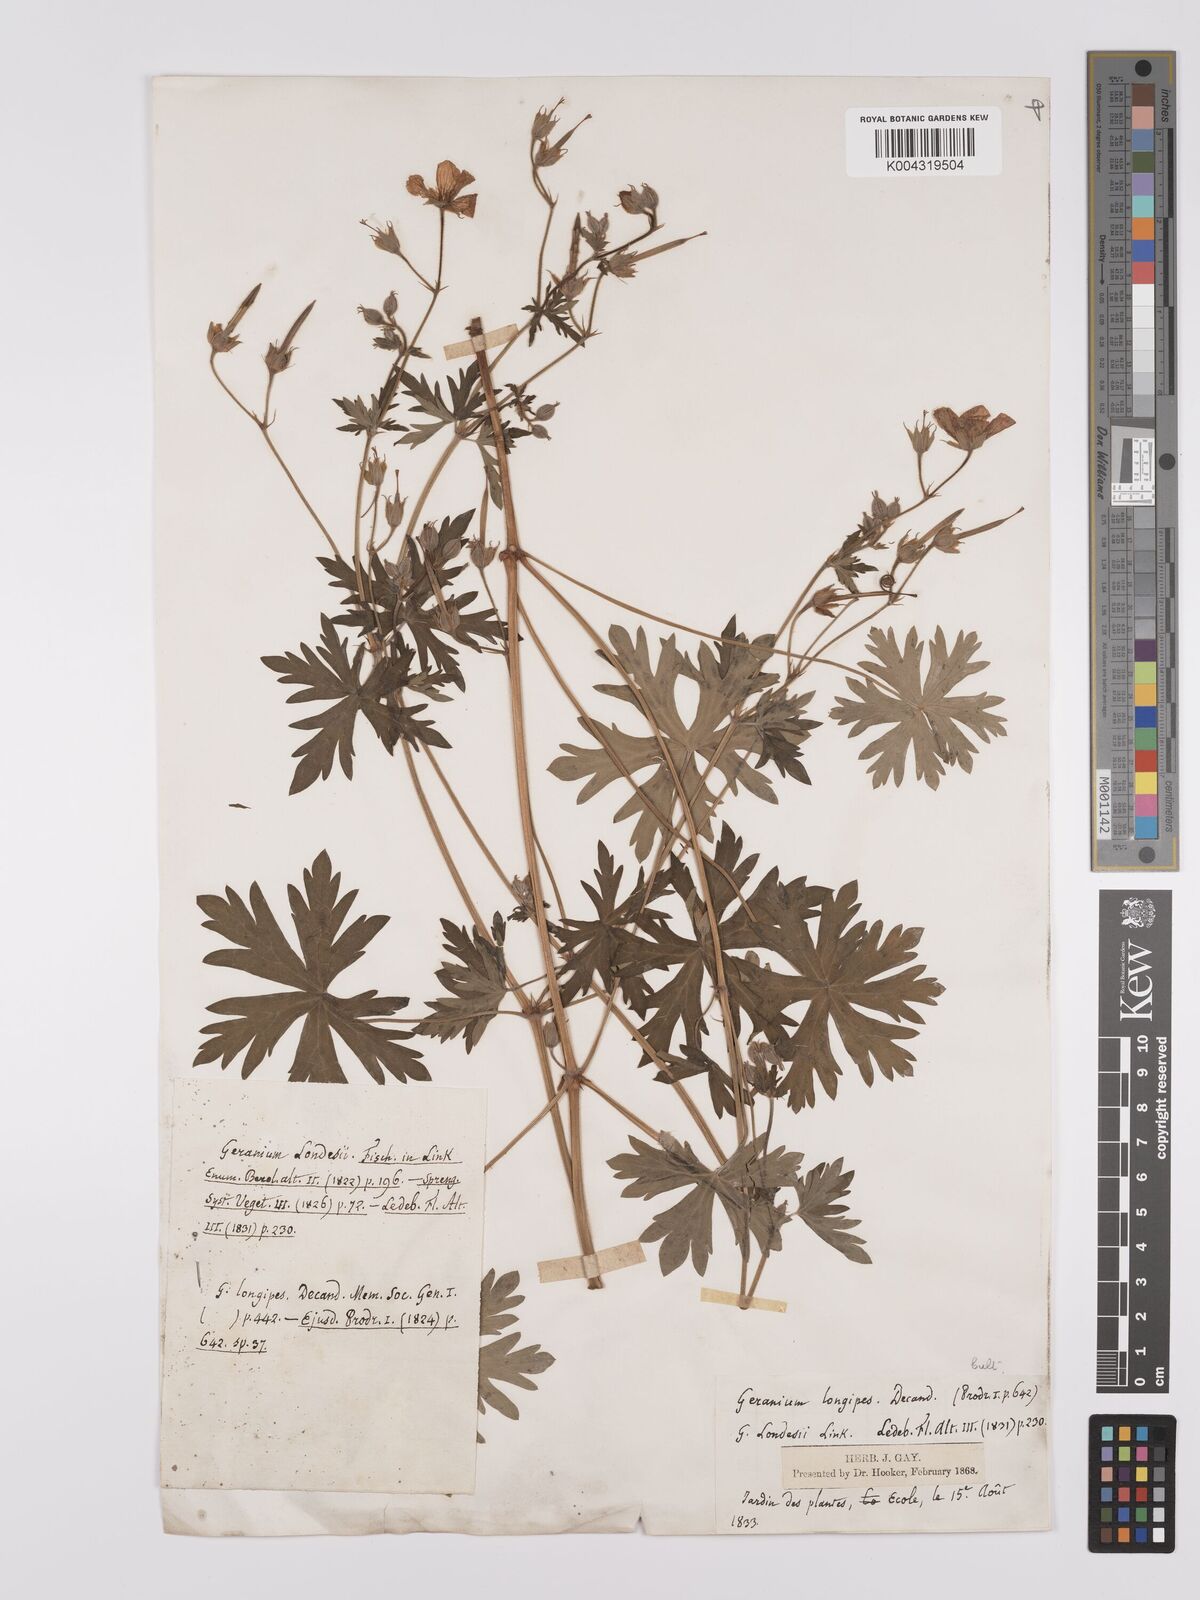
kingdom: Plantae
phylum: Tracheophyta
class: Magnoliopsida
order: Geraniales
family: Geraniaceae
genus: Geranium
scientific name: Geranium collinum
